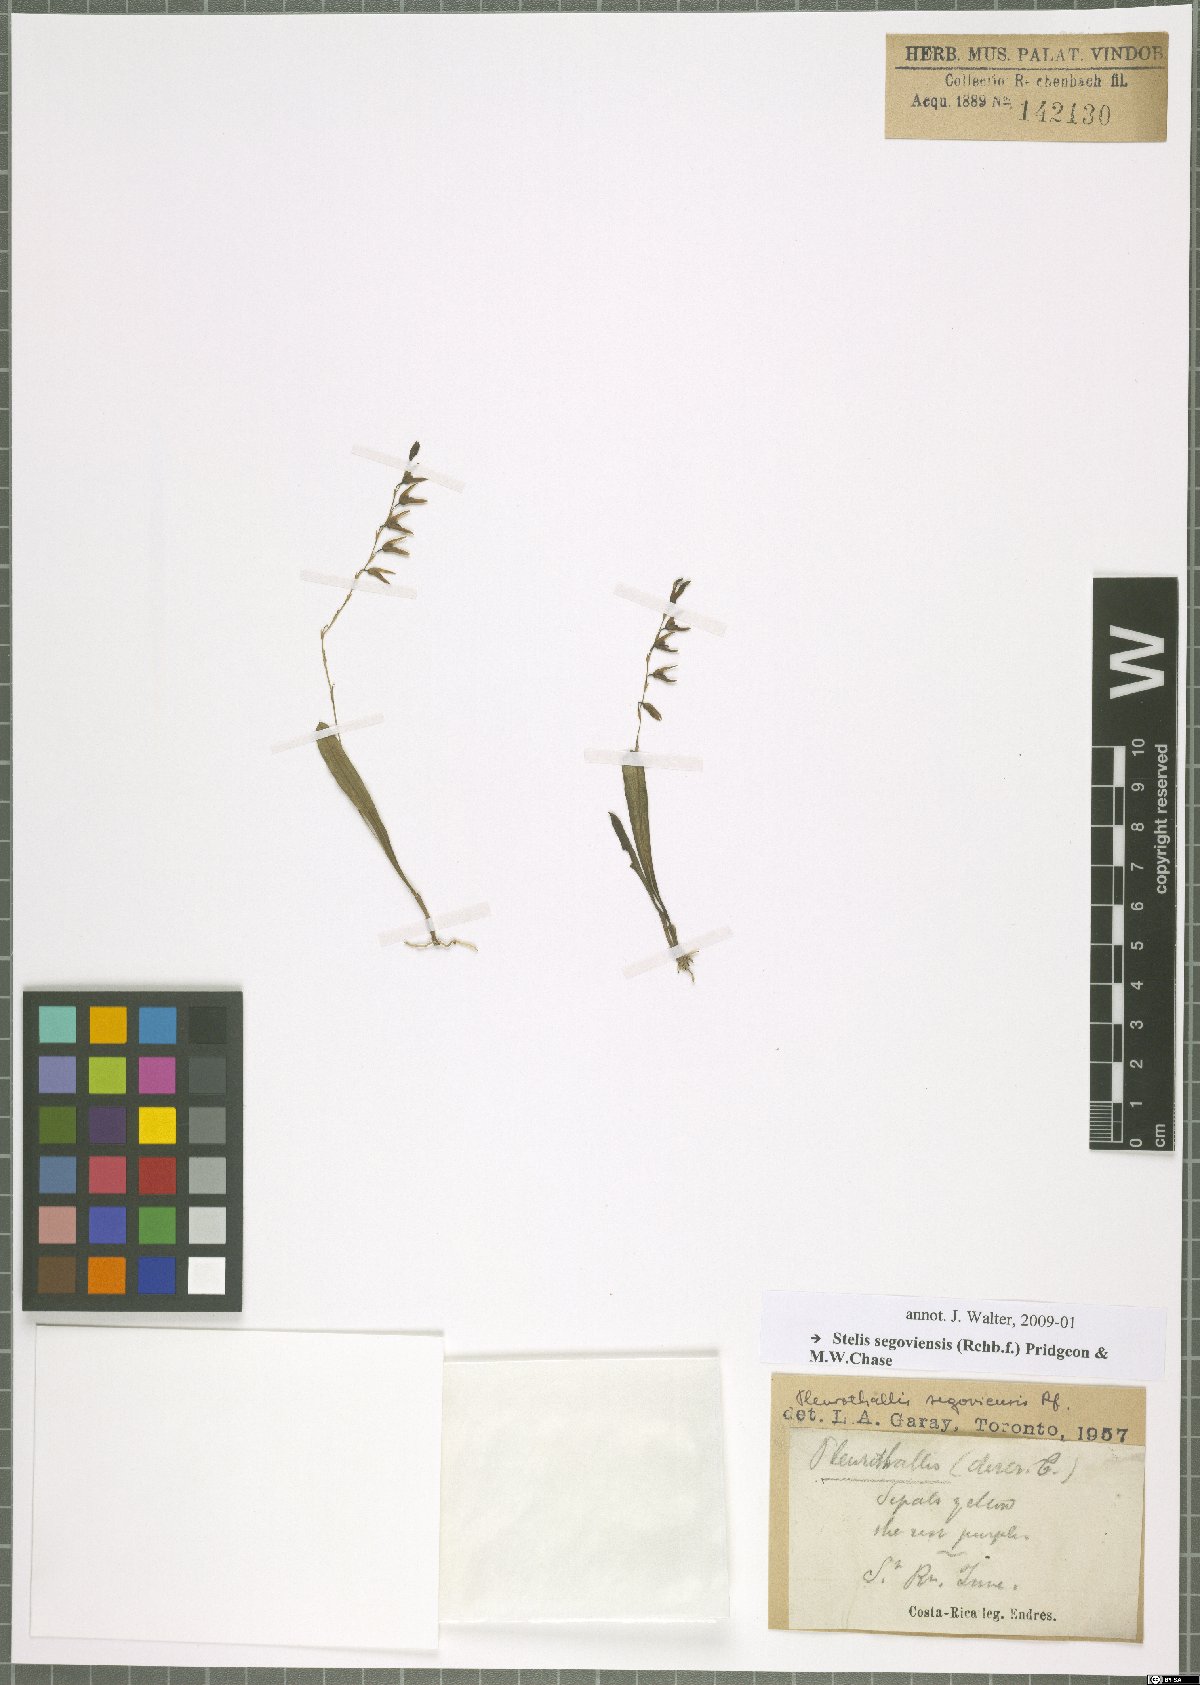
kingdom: Plantae
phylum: Tracheophyta
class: Liliopsida
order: Asparagales
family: Orchidaceae
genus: Stelis
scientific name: Stelis segoviensis
